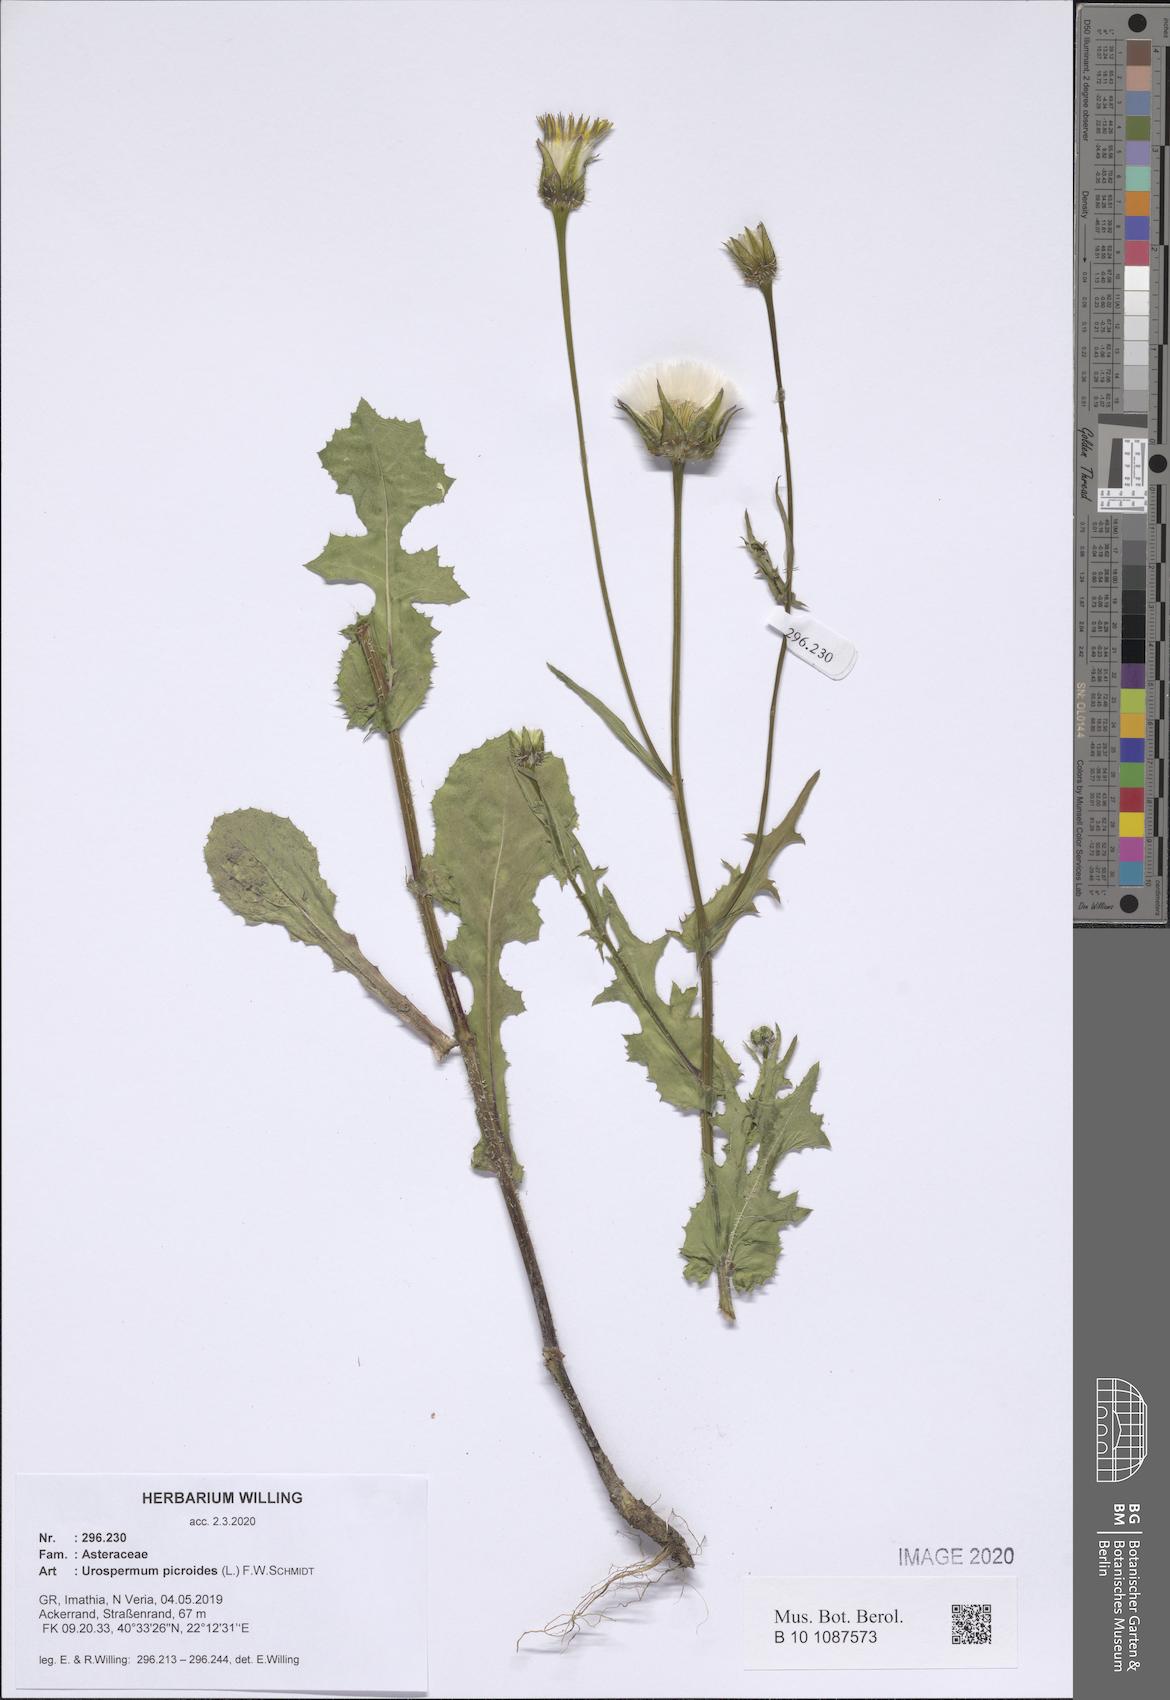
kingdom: Plantae
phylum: Tracheophyta
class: Magnoliopsida
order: Asterales
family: Asteraceae
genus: Urospermum
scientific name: Urospermum picroides
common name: False hawkbit
